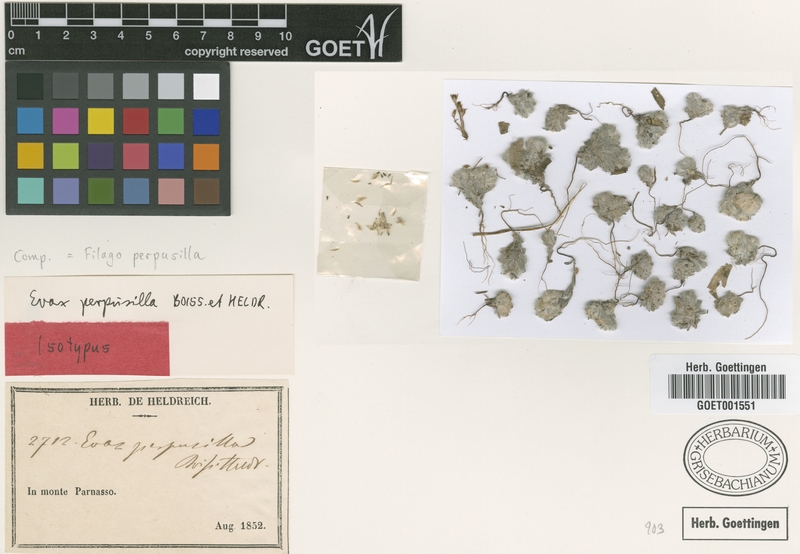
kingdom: Plantae
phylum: Tracheophyta
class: Magnoliopsida
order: Asterales
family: Asteraceae
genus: Filago
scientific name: Filago perpusilla
